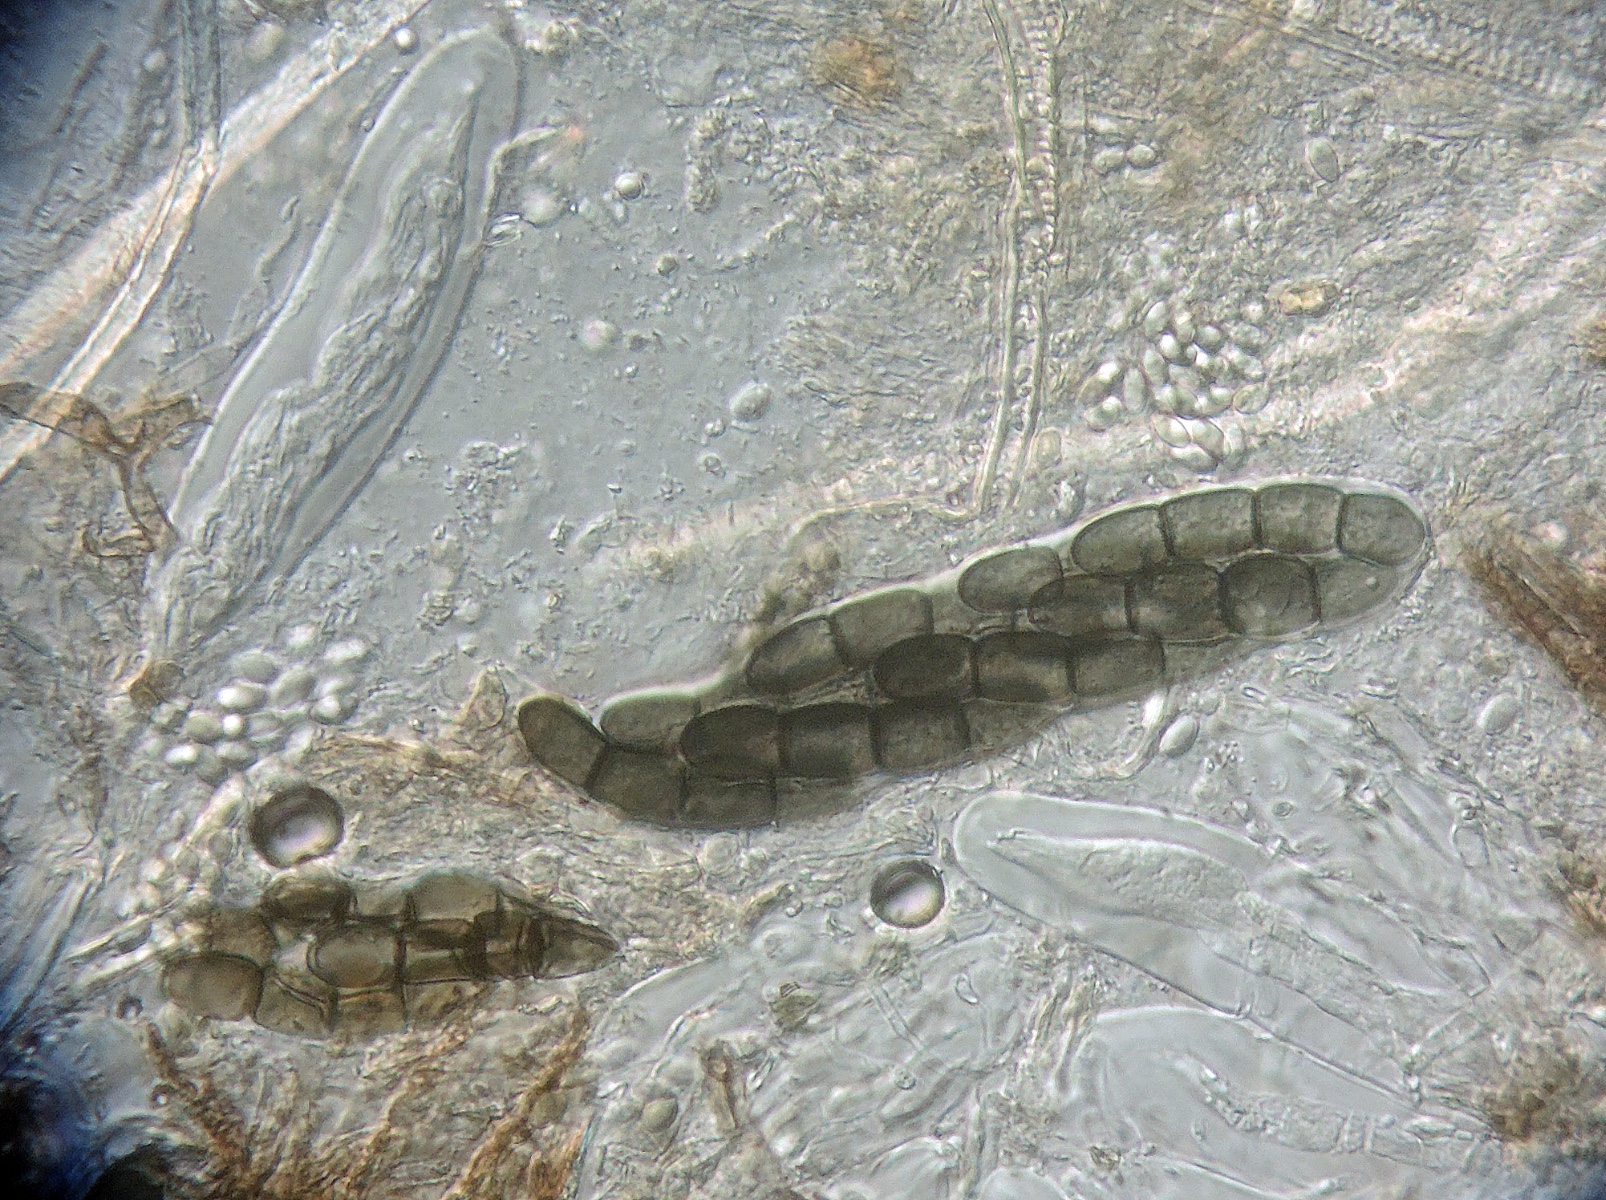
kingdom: Fungi
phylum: Ascomycota
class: Dothideomycetes
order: Pleosporales
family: Sporormiaceae
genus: Sporormiella
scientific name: Sporormiella intermedia
